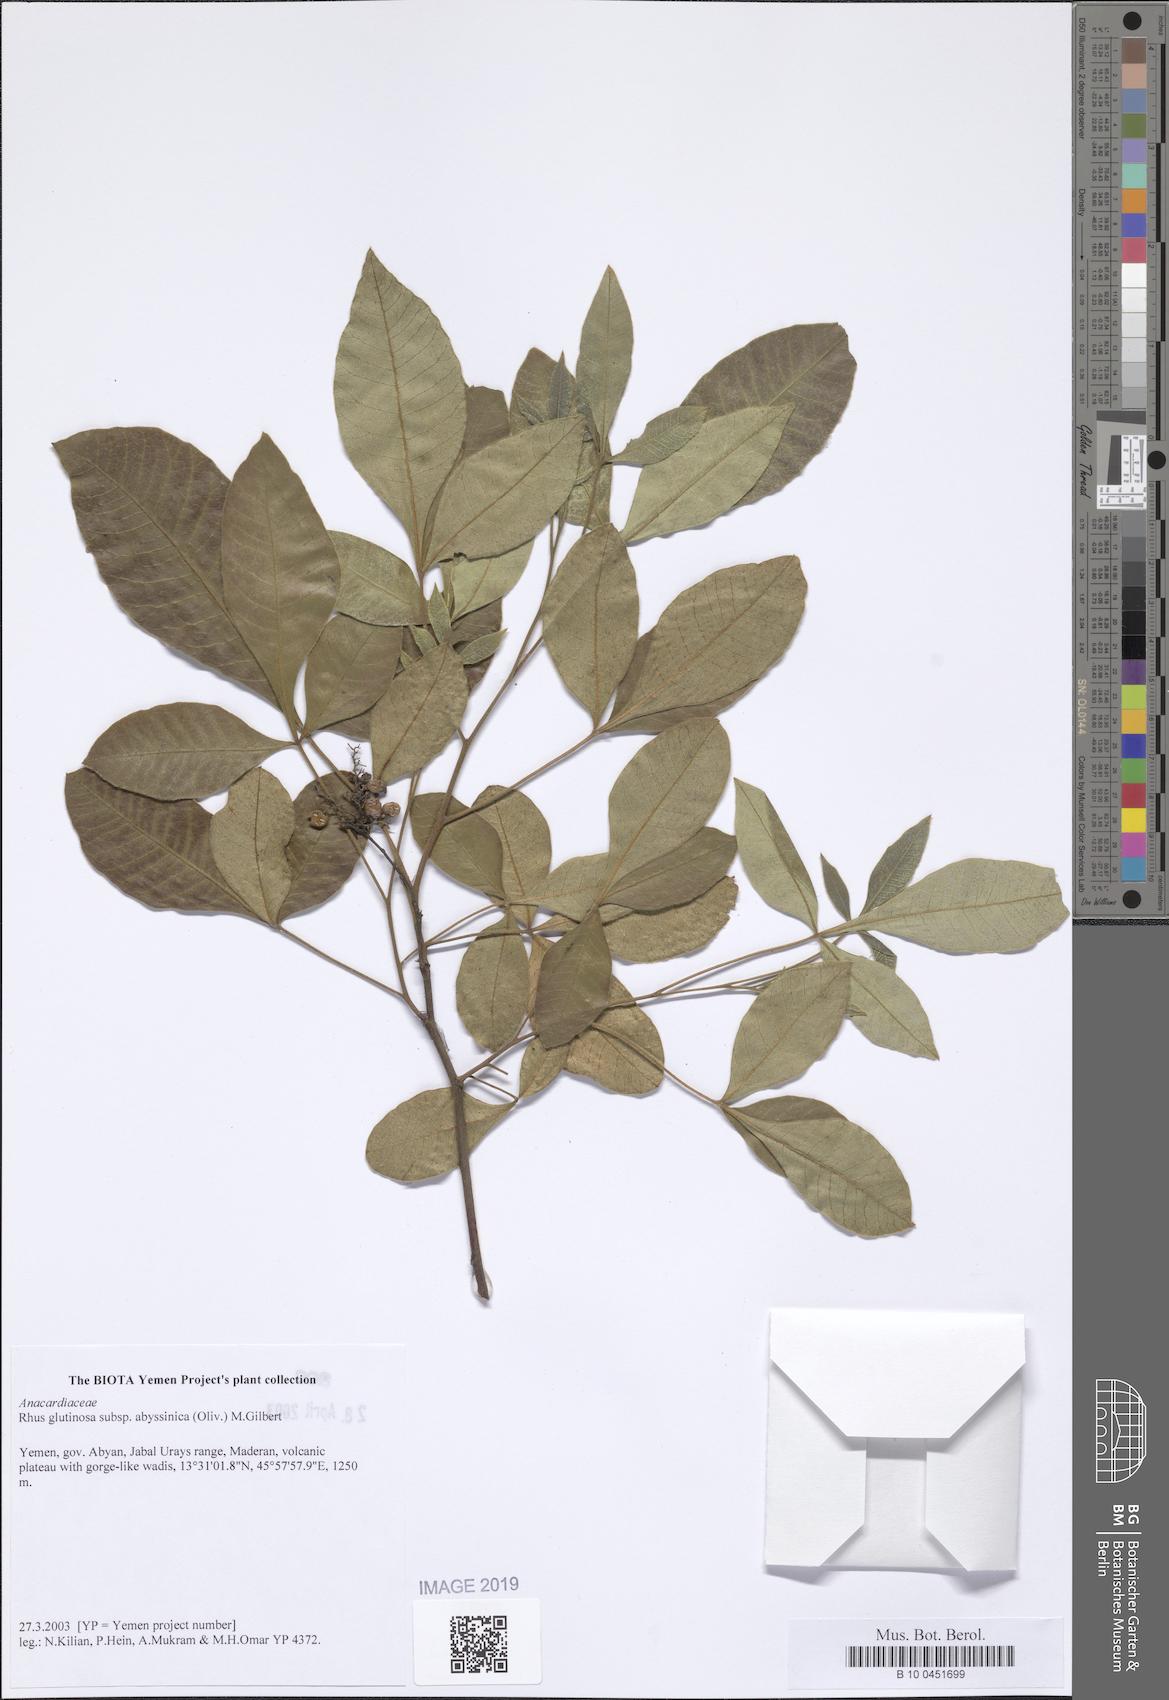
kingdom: Plantae
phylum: Tracheophyta
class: Magnoliopsida
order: Sapindales
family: Anacardiaceae
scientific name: Anacardiaceae
